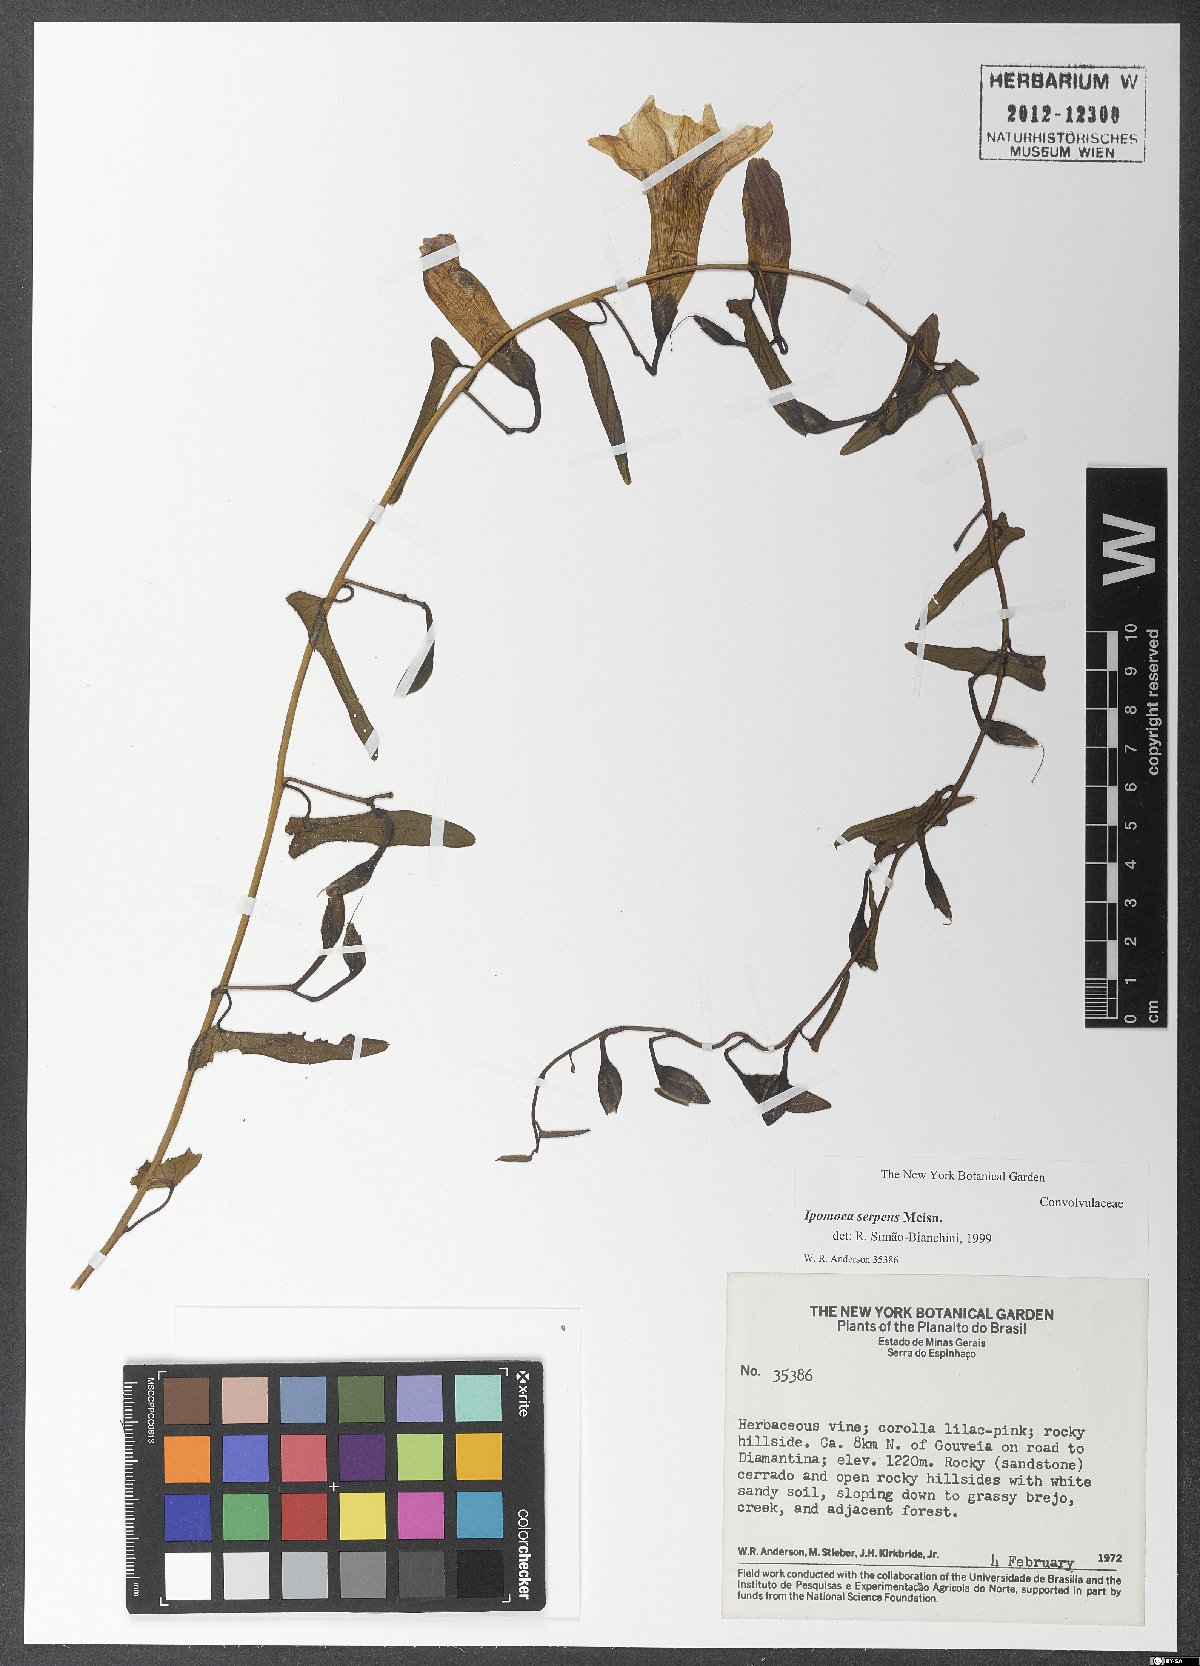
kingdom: Plantae
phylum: Tracheophyta
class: Magnoliopsida
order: Solanales
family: Convolvulaceae
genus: Ipomoea
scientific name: Ipomoea maurandioides
